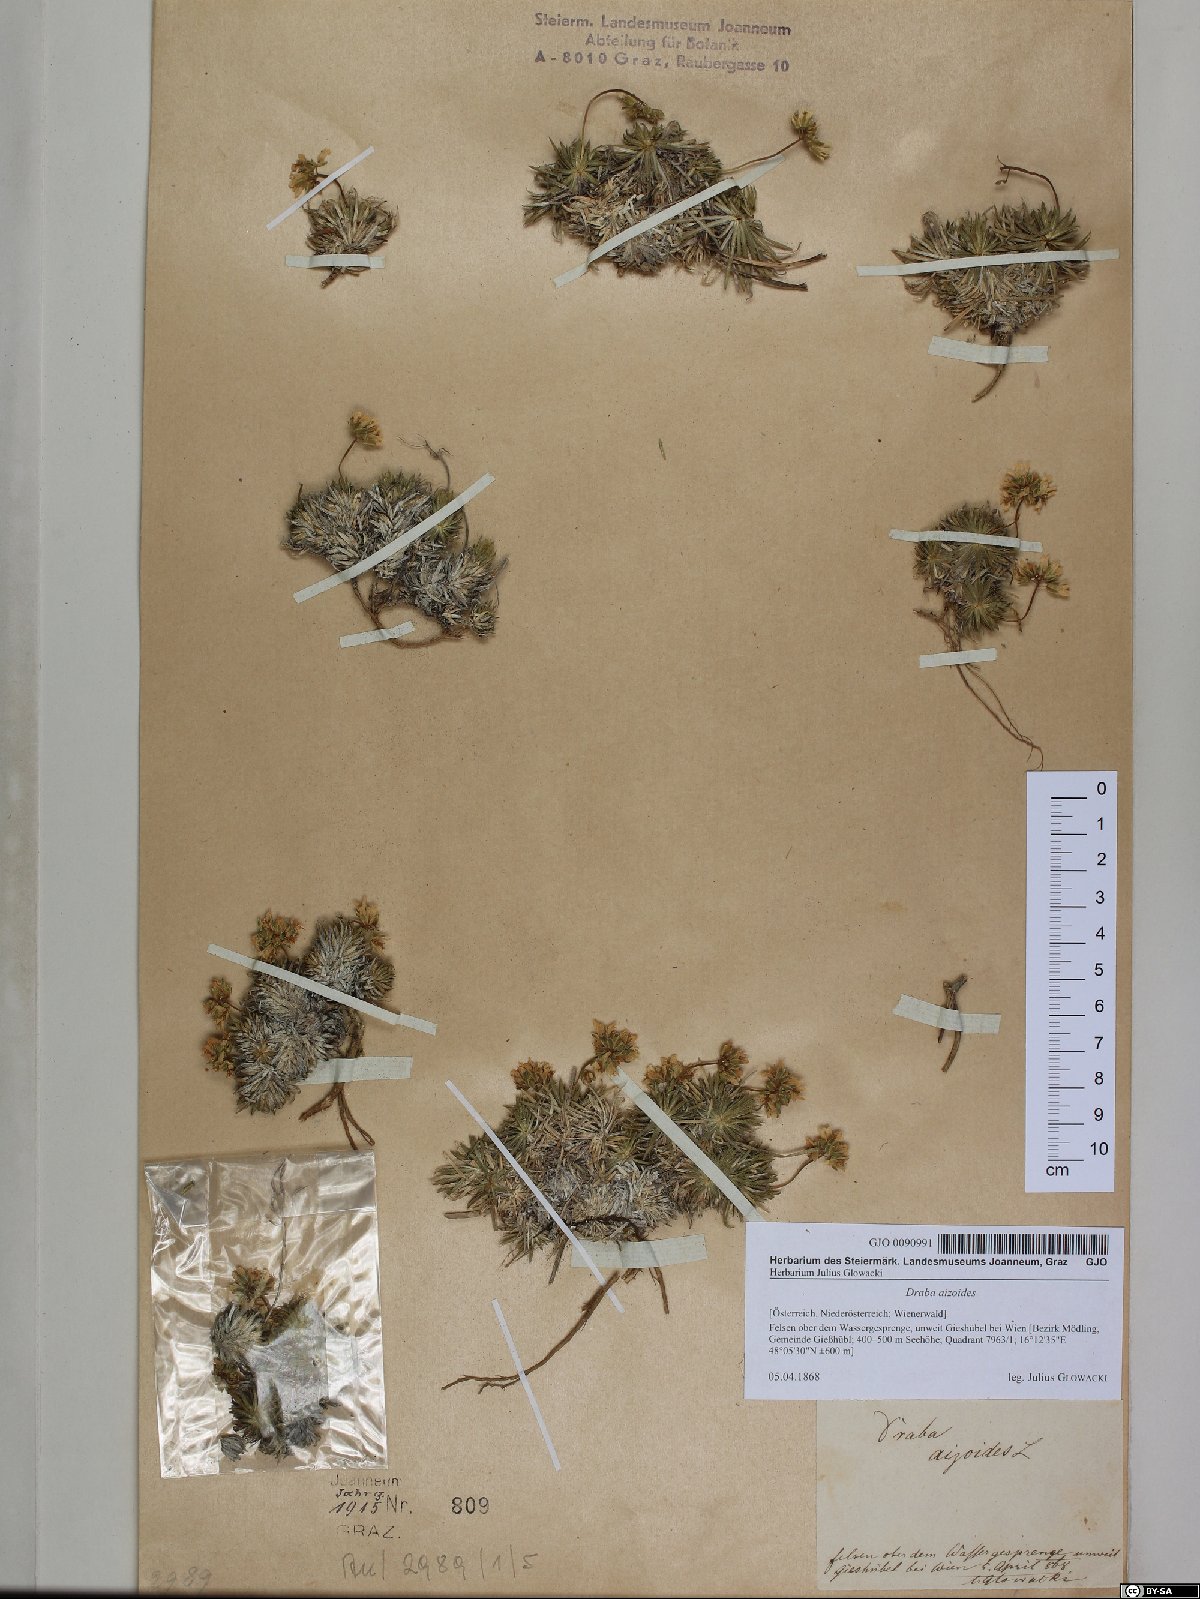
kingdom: Plantae
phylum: Tracheophyta
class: Magnoliopsida
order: Brassicales
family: Brassicaceae
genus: Draba
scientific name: Draba aizoides
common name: Yellow whitlowgrass
